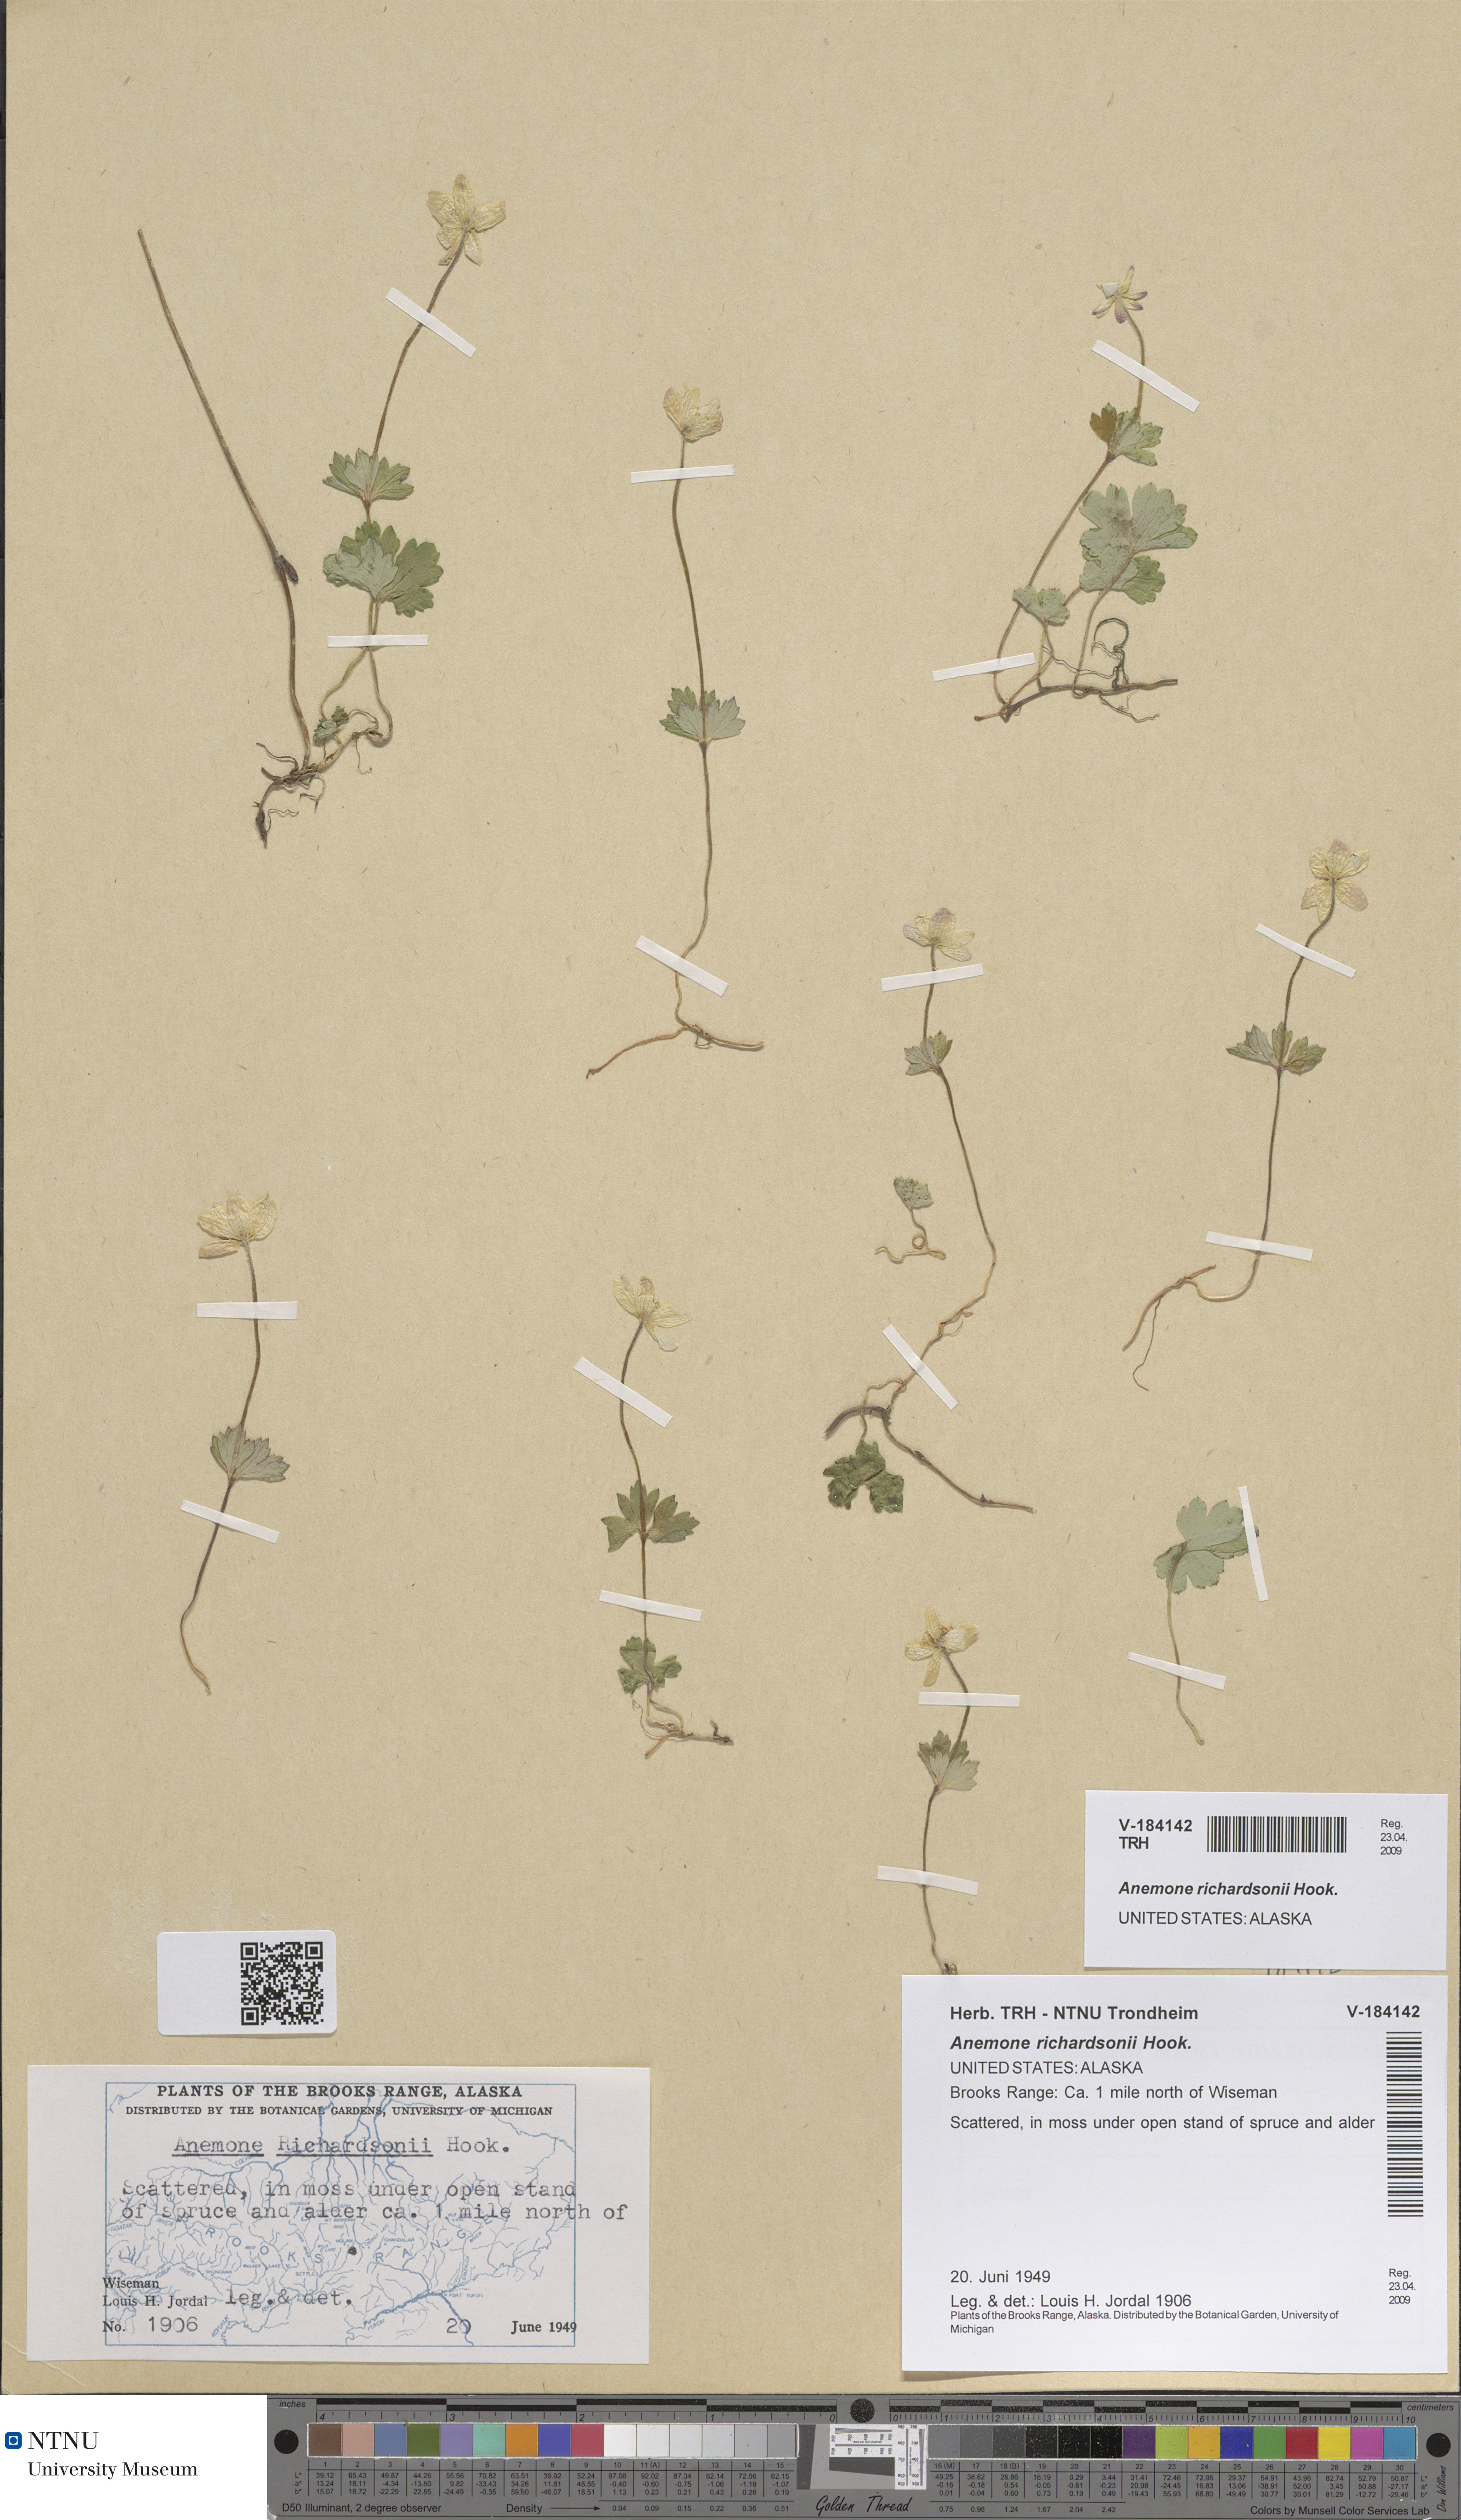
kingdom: Plantae
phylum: Tracheophyta
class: Magnoliopsida
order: Ranunculales
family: Ranunculaceae
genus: Anemonastrum
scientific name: Anemonastrum richardsonii
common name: Richardson's anemone
